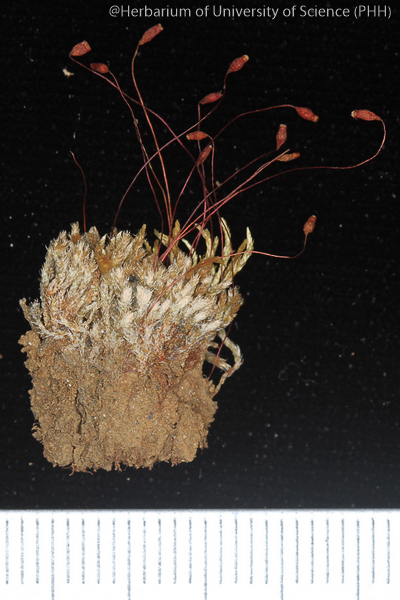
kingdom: Plantae
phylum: Bryophyta
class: Bryopsida
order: Bryales
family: Bryaceae
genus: Bryum
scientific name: Bryum lanatum
